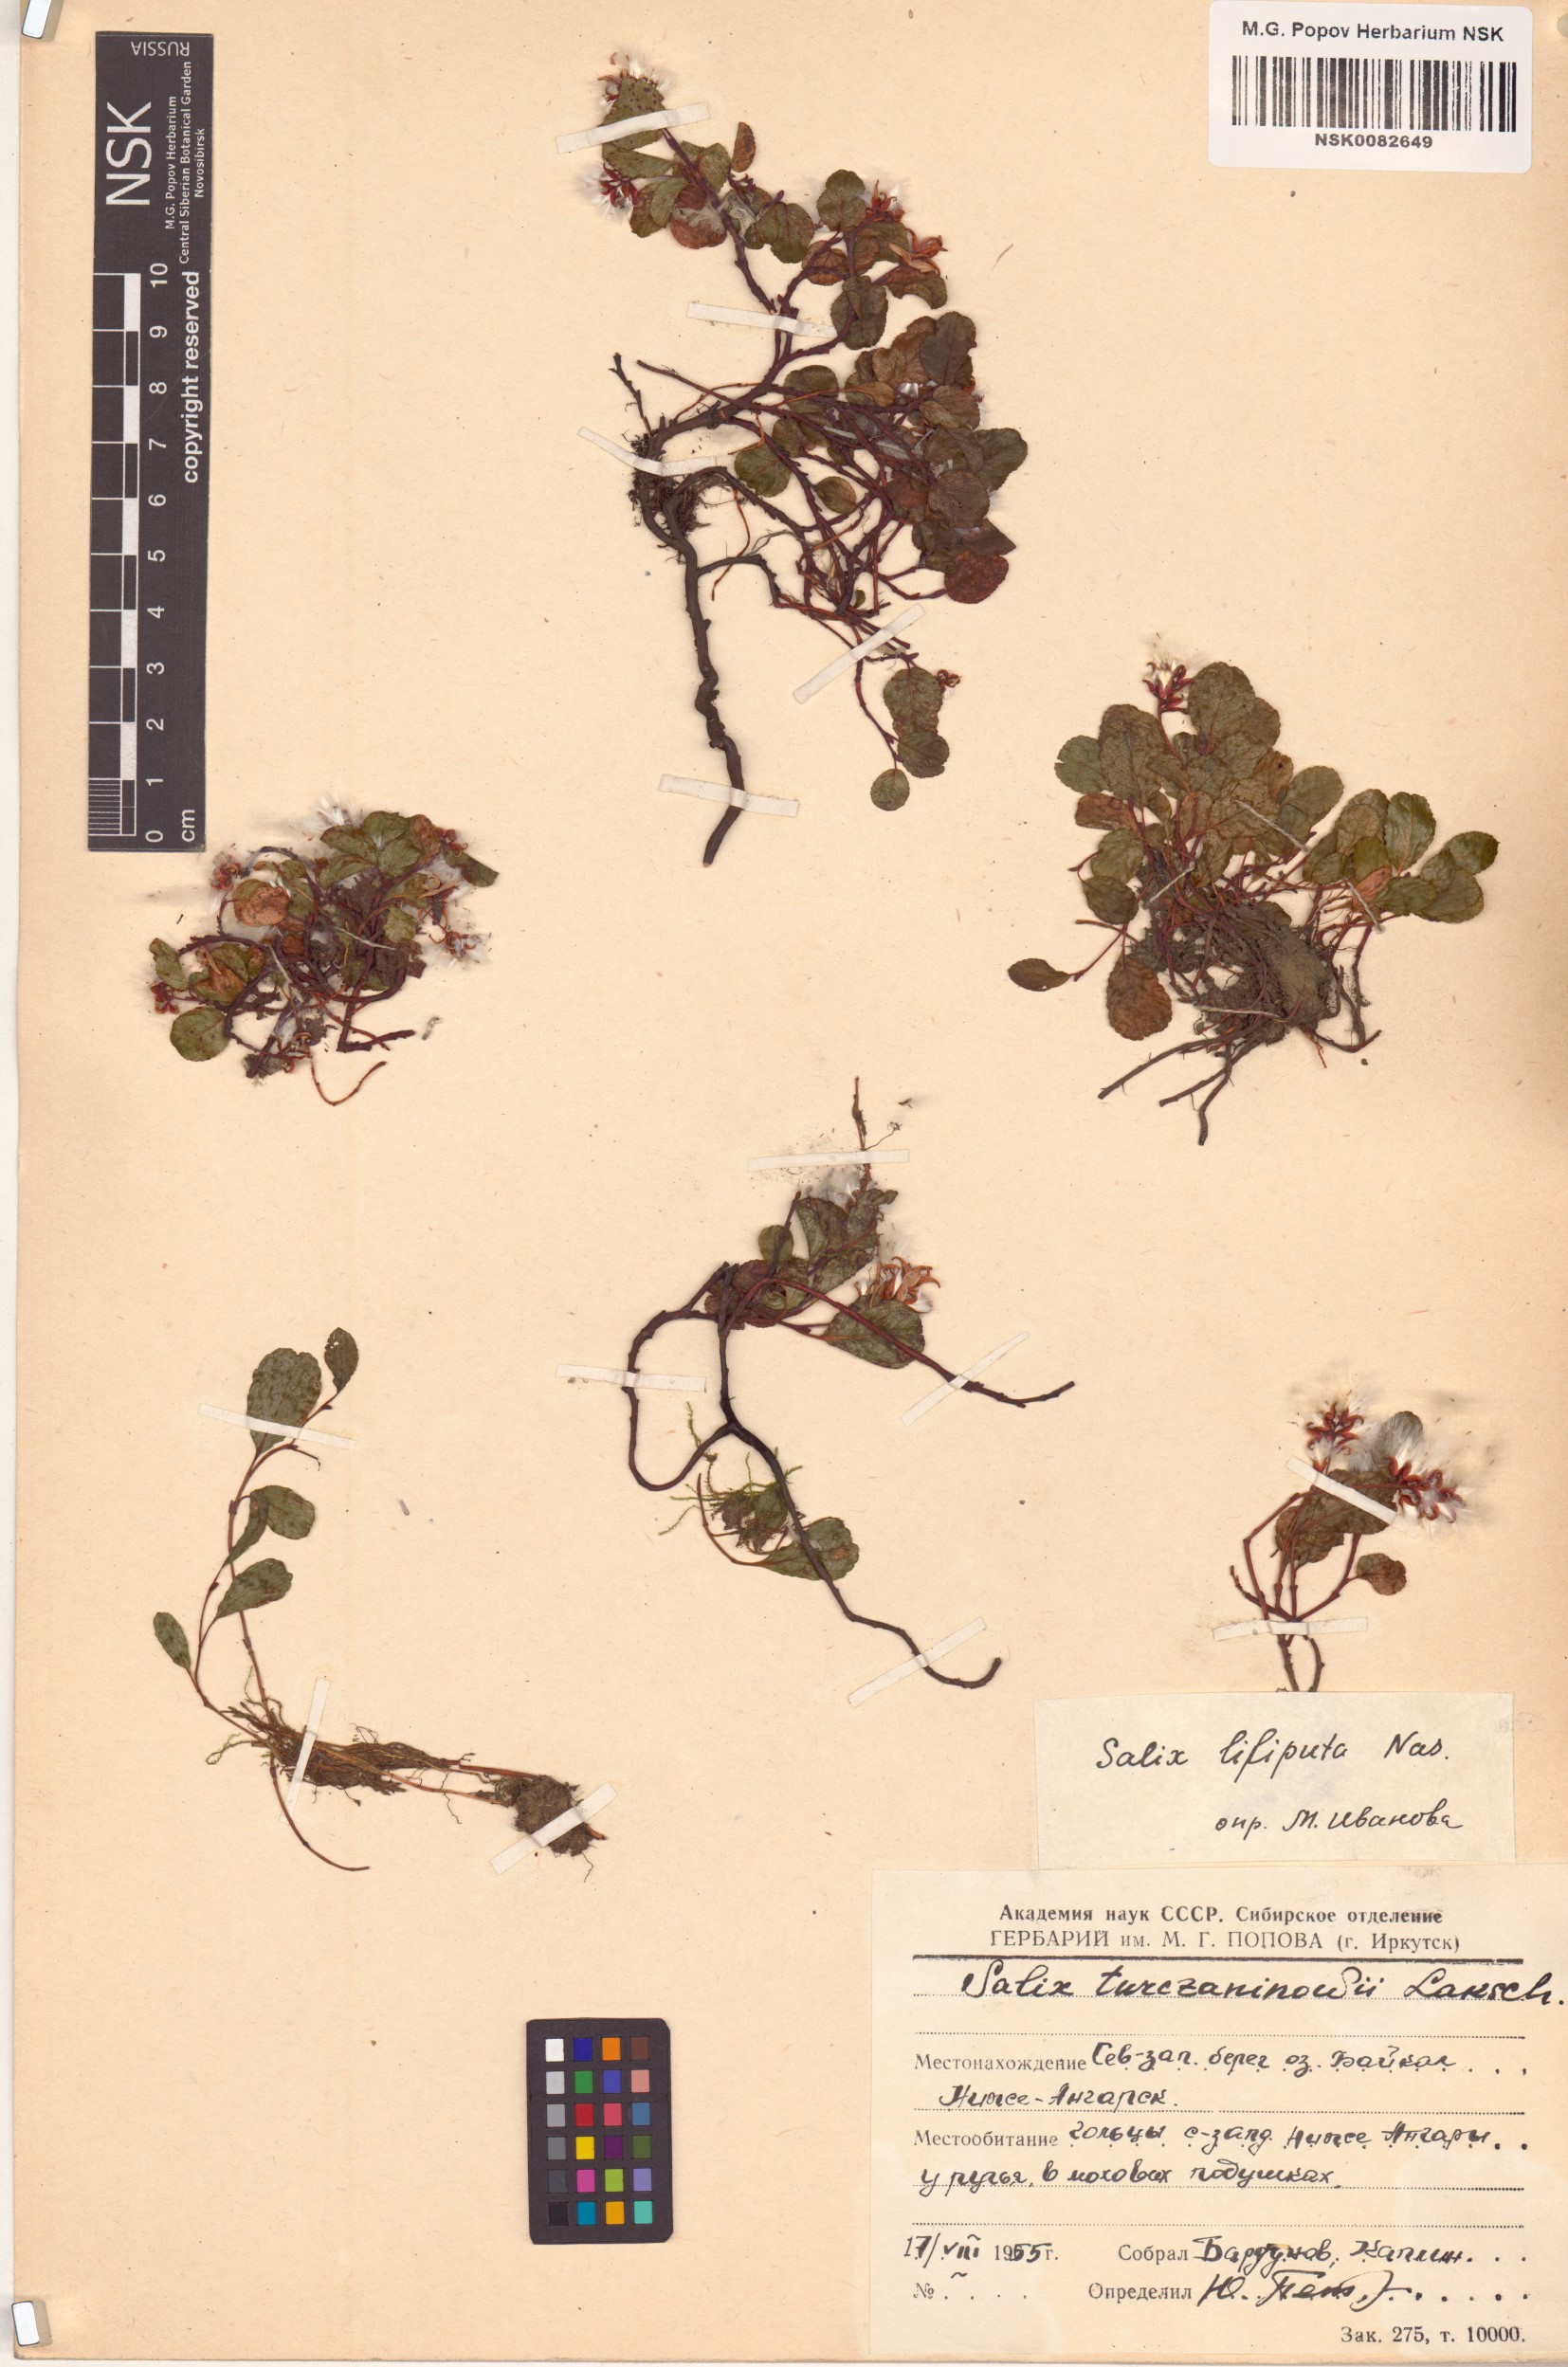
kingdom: Plantae
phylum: Tracheophyta
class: Magnoliopsida
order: Malpighiales
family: Salicaceae
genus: Salix
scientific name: Salix turczaninowii
